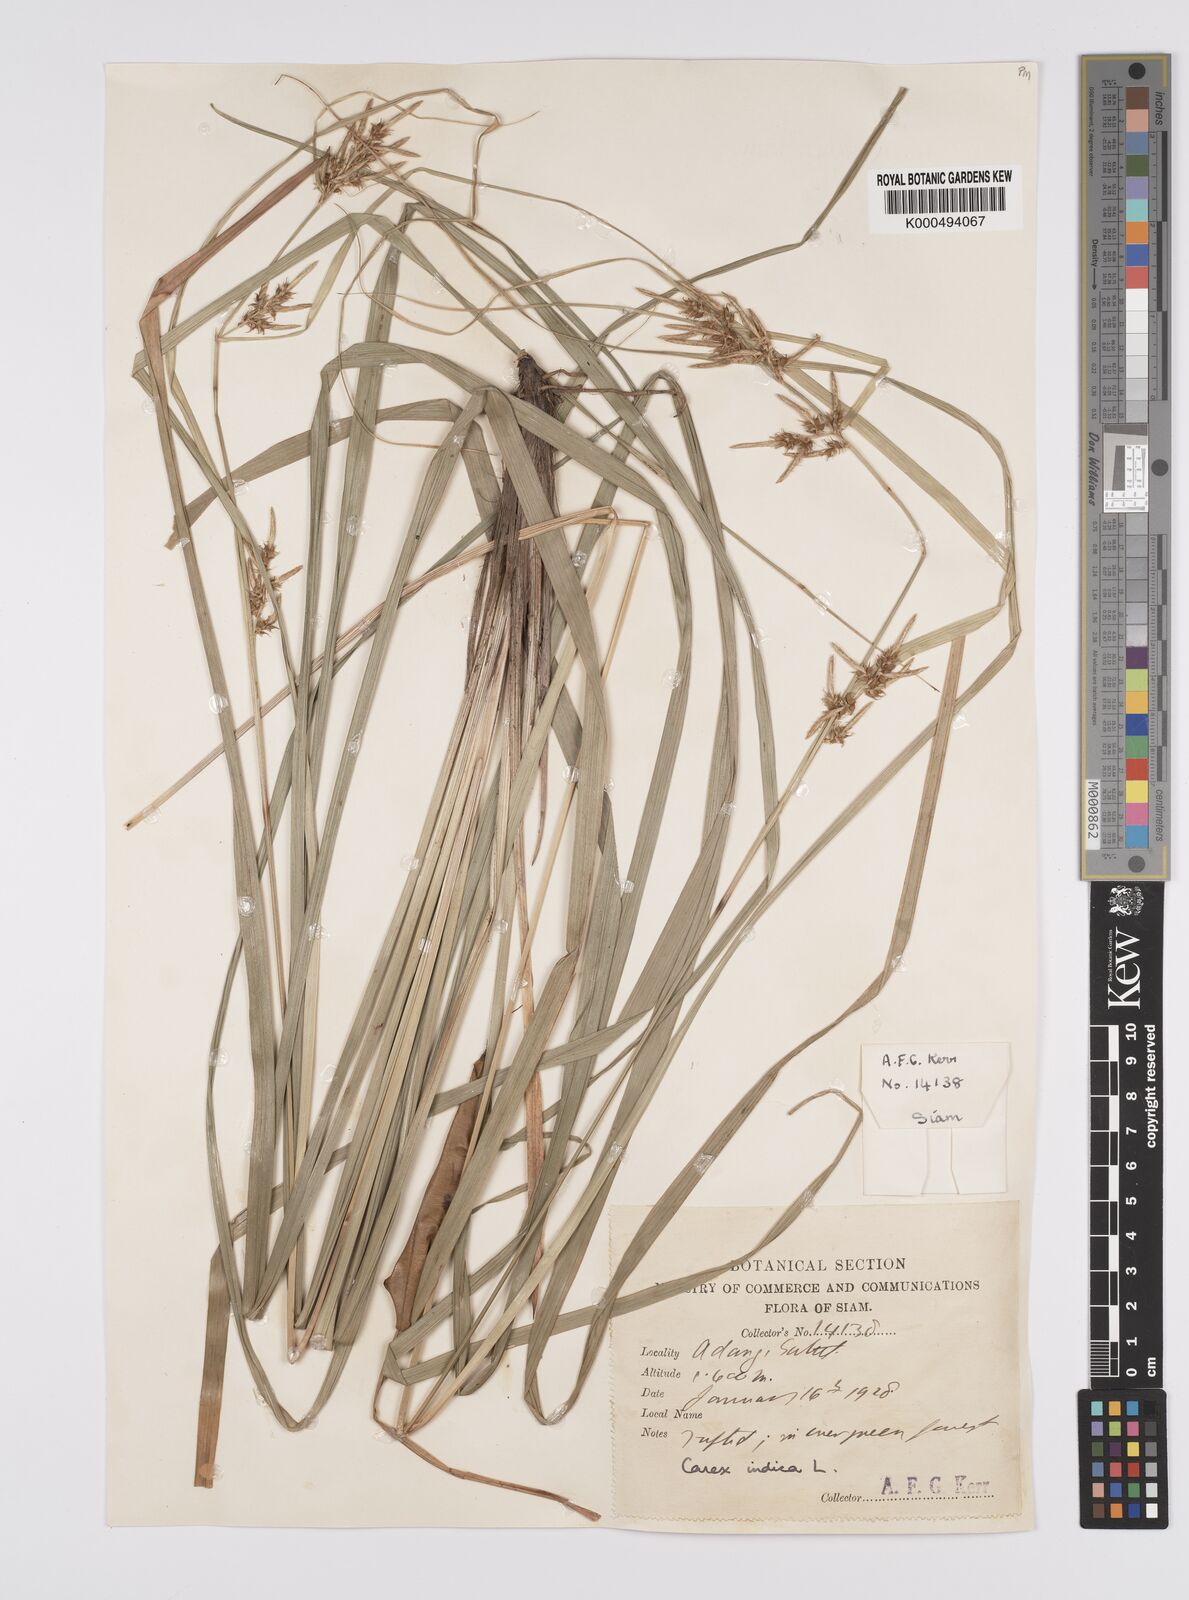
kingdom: Plantae
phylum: Tracheophyta
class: Liliopsida
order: Poales
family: Cyperaceae
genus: Carex
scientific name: Carex indica
